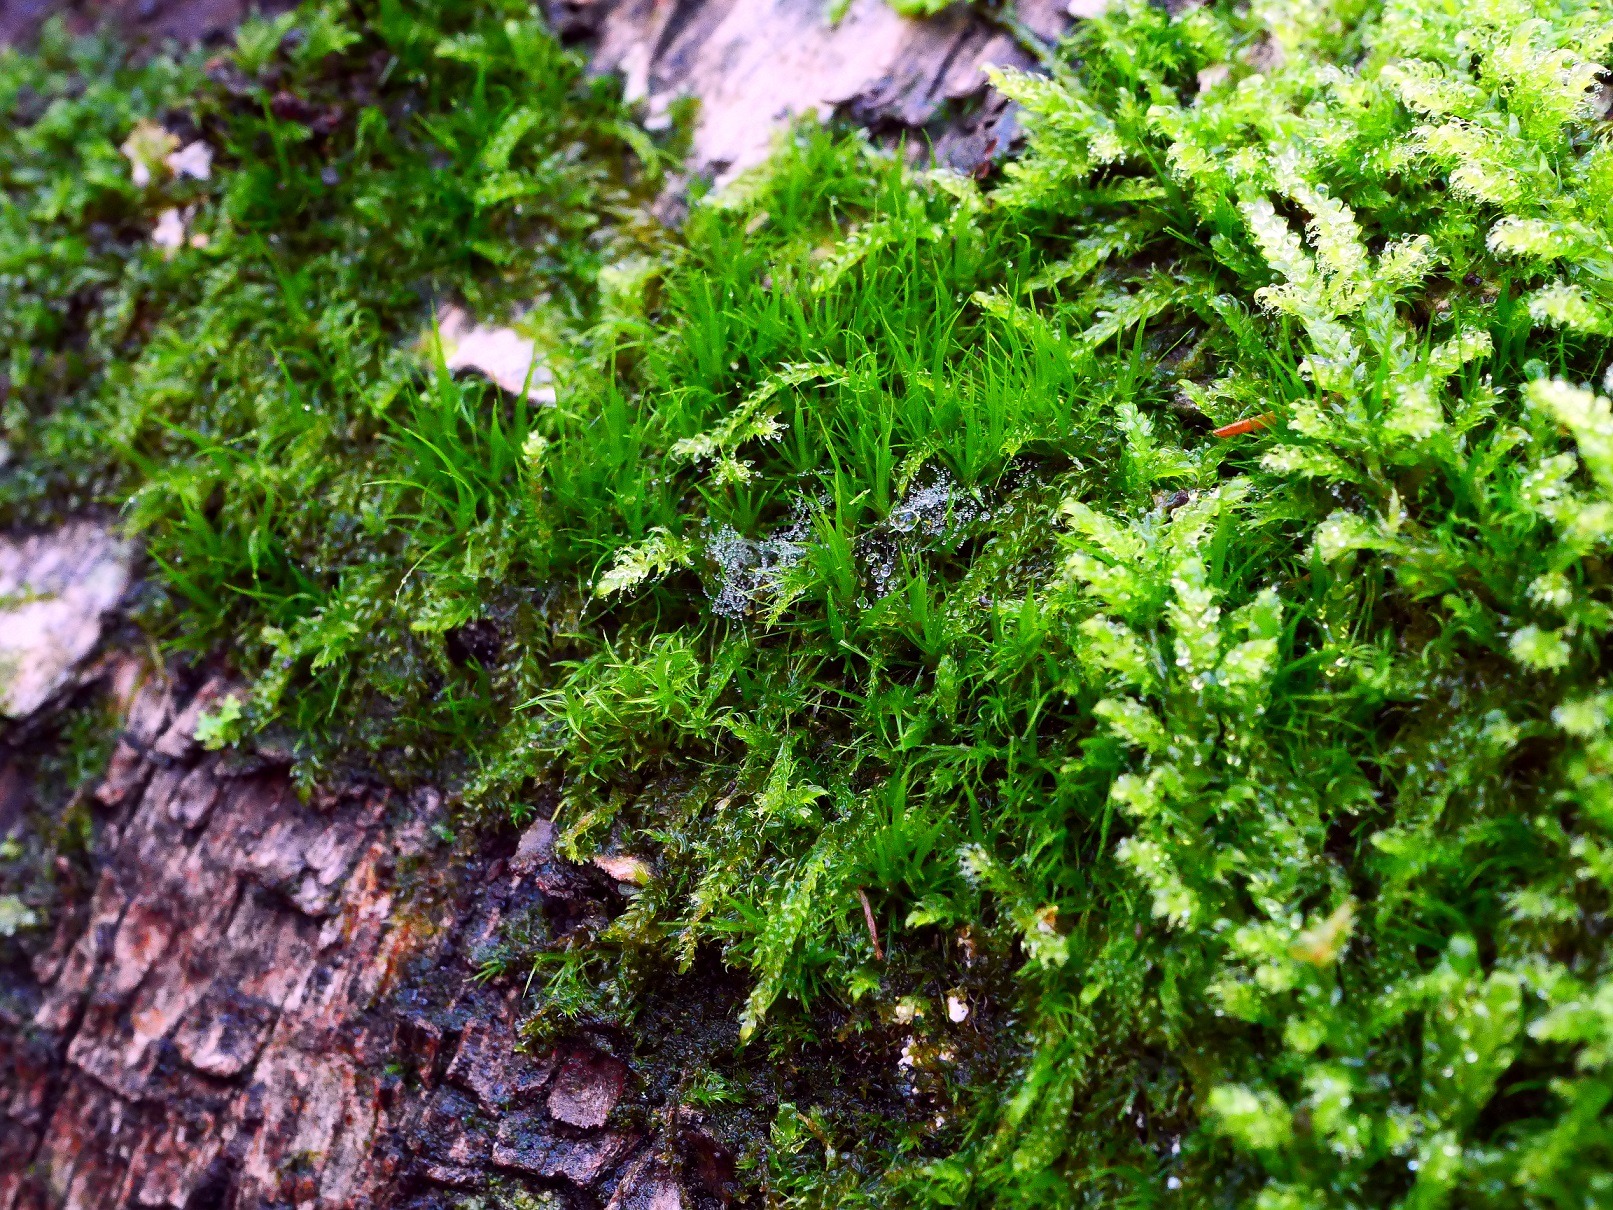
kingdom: Plantae
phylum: Bryophyta
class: Bryopsida
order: Dicranales
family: Dicranaceae
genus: Orthodicranum
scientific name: Orthodicranum tauricum
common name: Skør tyndvinge
